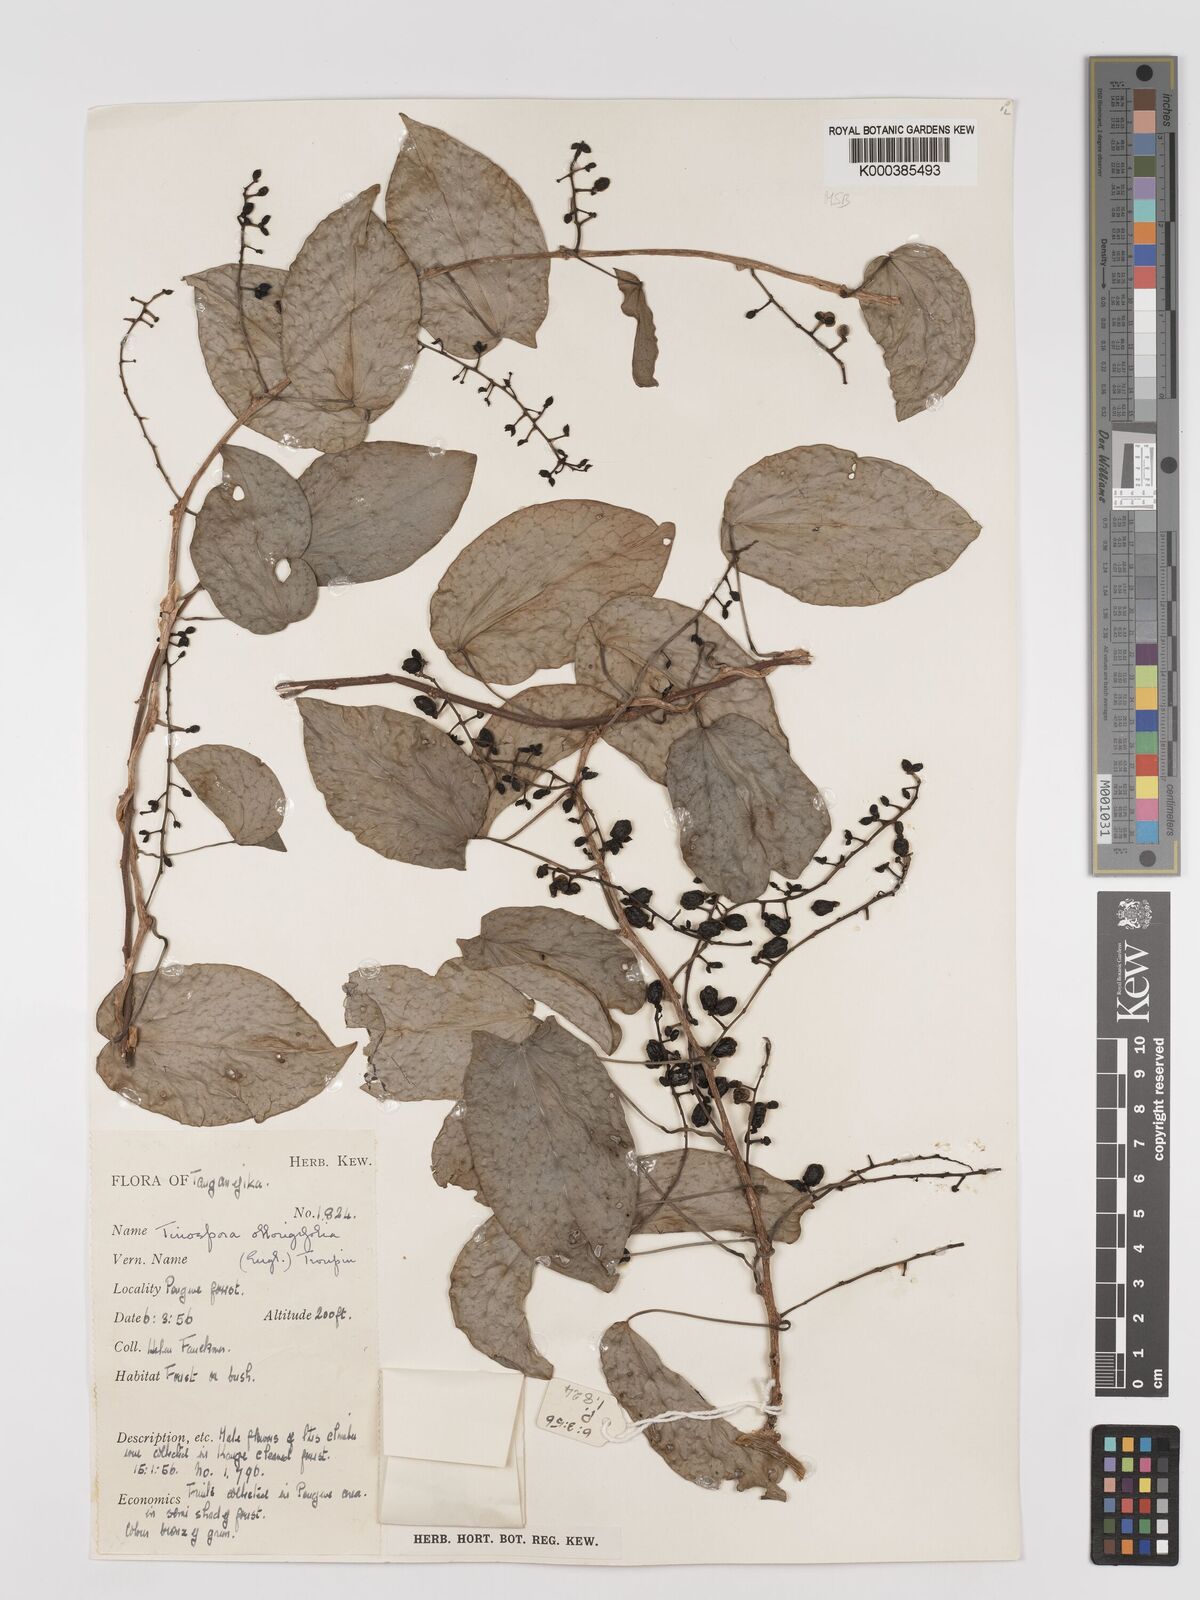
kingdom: Plantae
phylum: Tracheophyta
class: Magnoliopsida
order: Ranunculales
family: Menispermaceae
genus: Tinospora
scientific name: Tinospora oblongifolia
